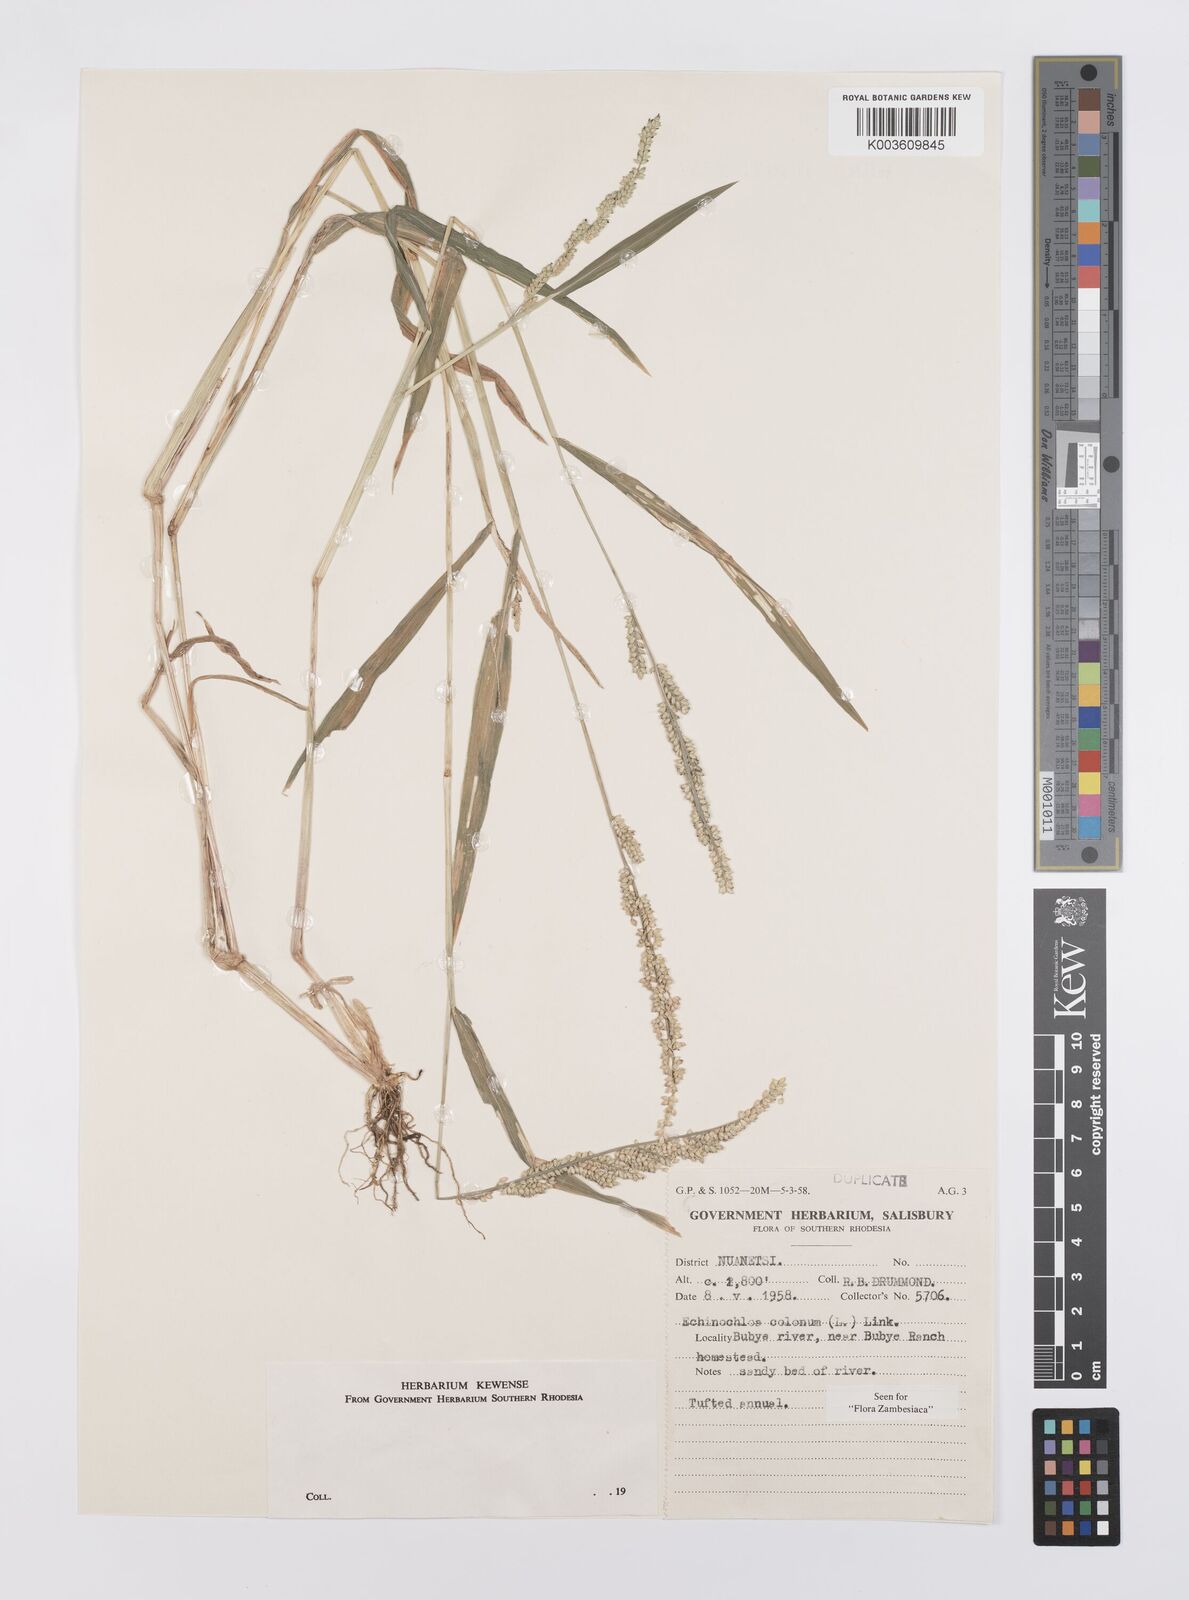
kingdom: Plantae
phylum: Tracheophyta
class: Liliopsida
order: Poales
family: Poaceae
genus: Echinochloa
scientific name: Echinochloa colonum
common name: Jungle rice
